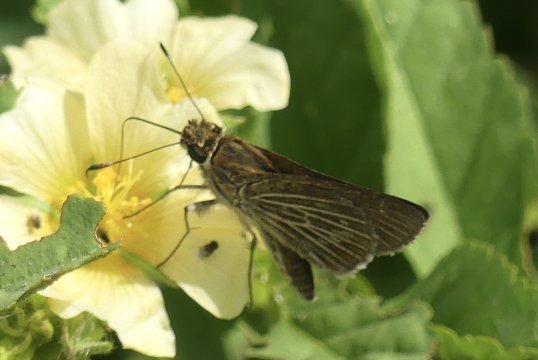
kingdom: Animalia
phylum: Arthropoda
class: Insecta
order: Lepidoptera
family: Hesperiidae
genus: Callimormus
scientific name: Callimormus juventus
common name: Juventus Skipper
